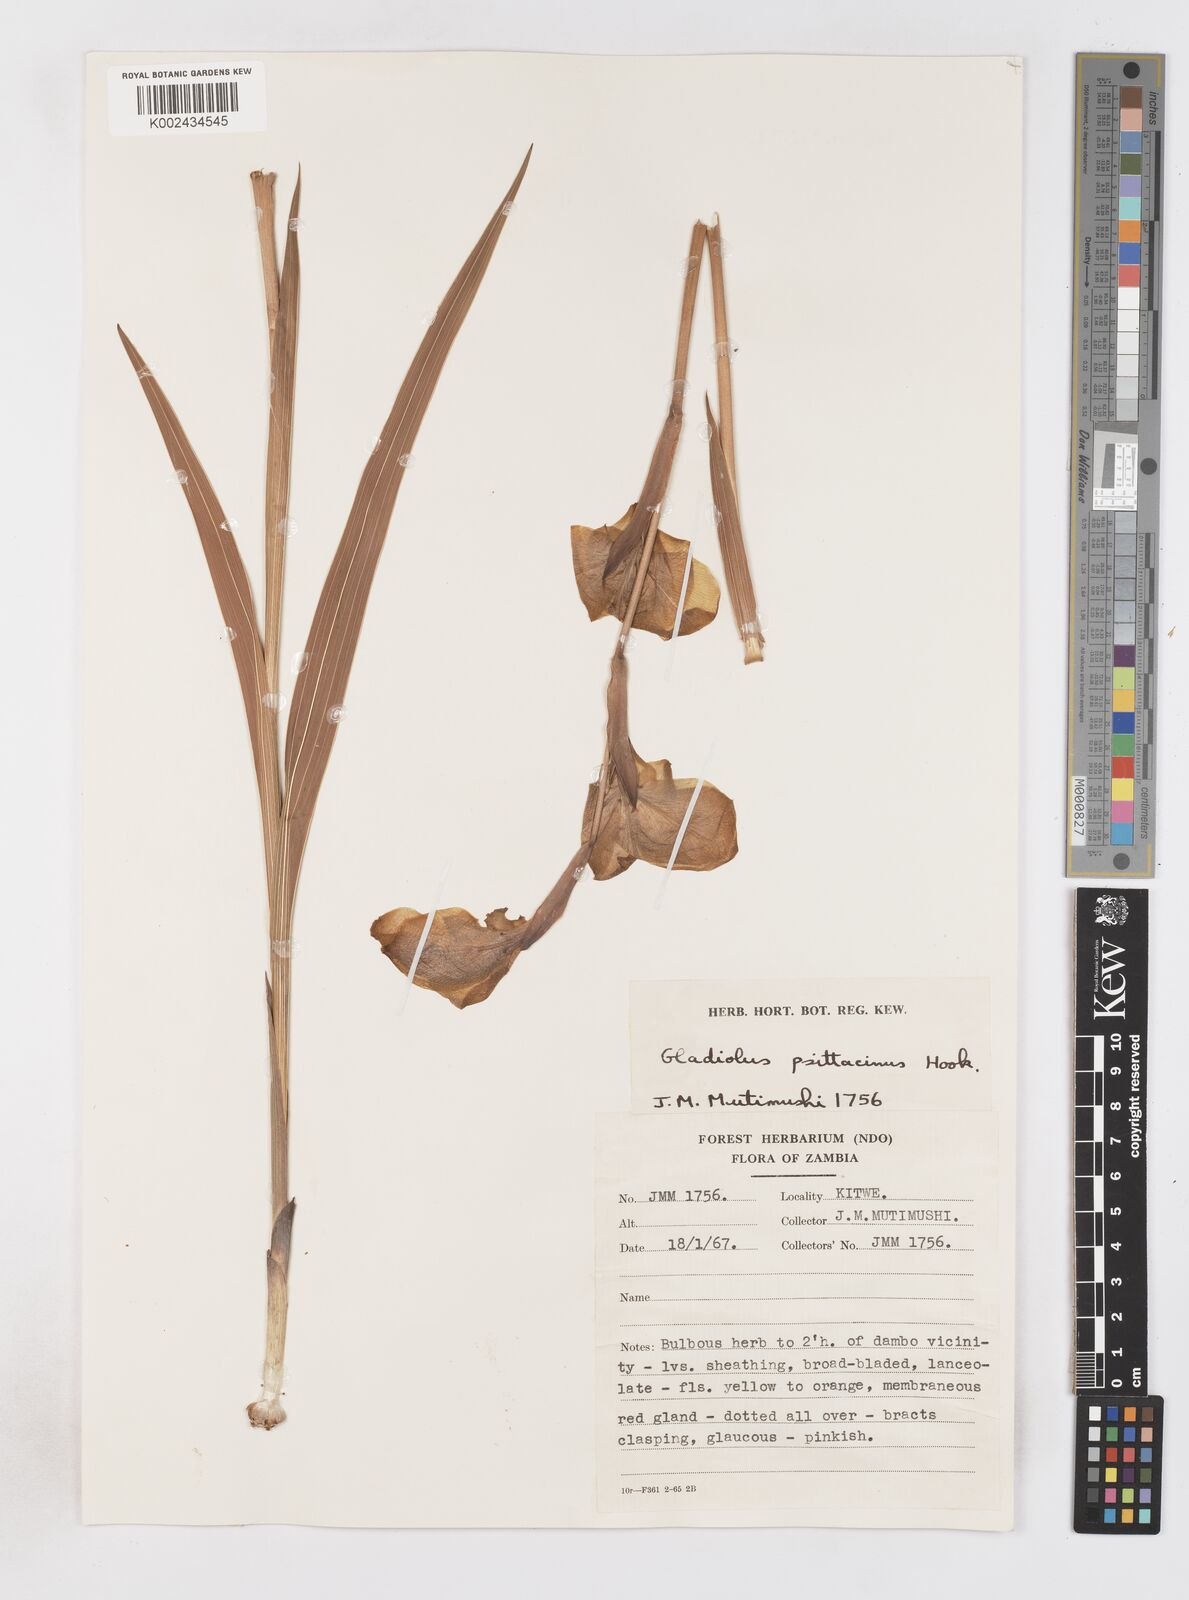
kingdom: Plantae
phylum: Tracheophyta
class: Liliopsida
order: Asparagales
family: Iridaceae
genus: Gladiolus
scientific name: Gladiolus dalenii
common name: Cornflag
